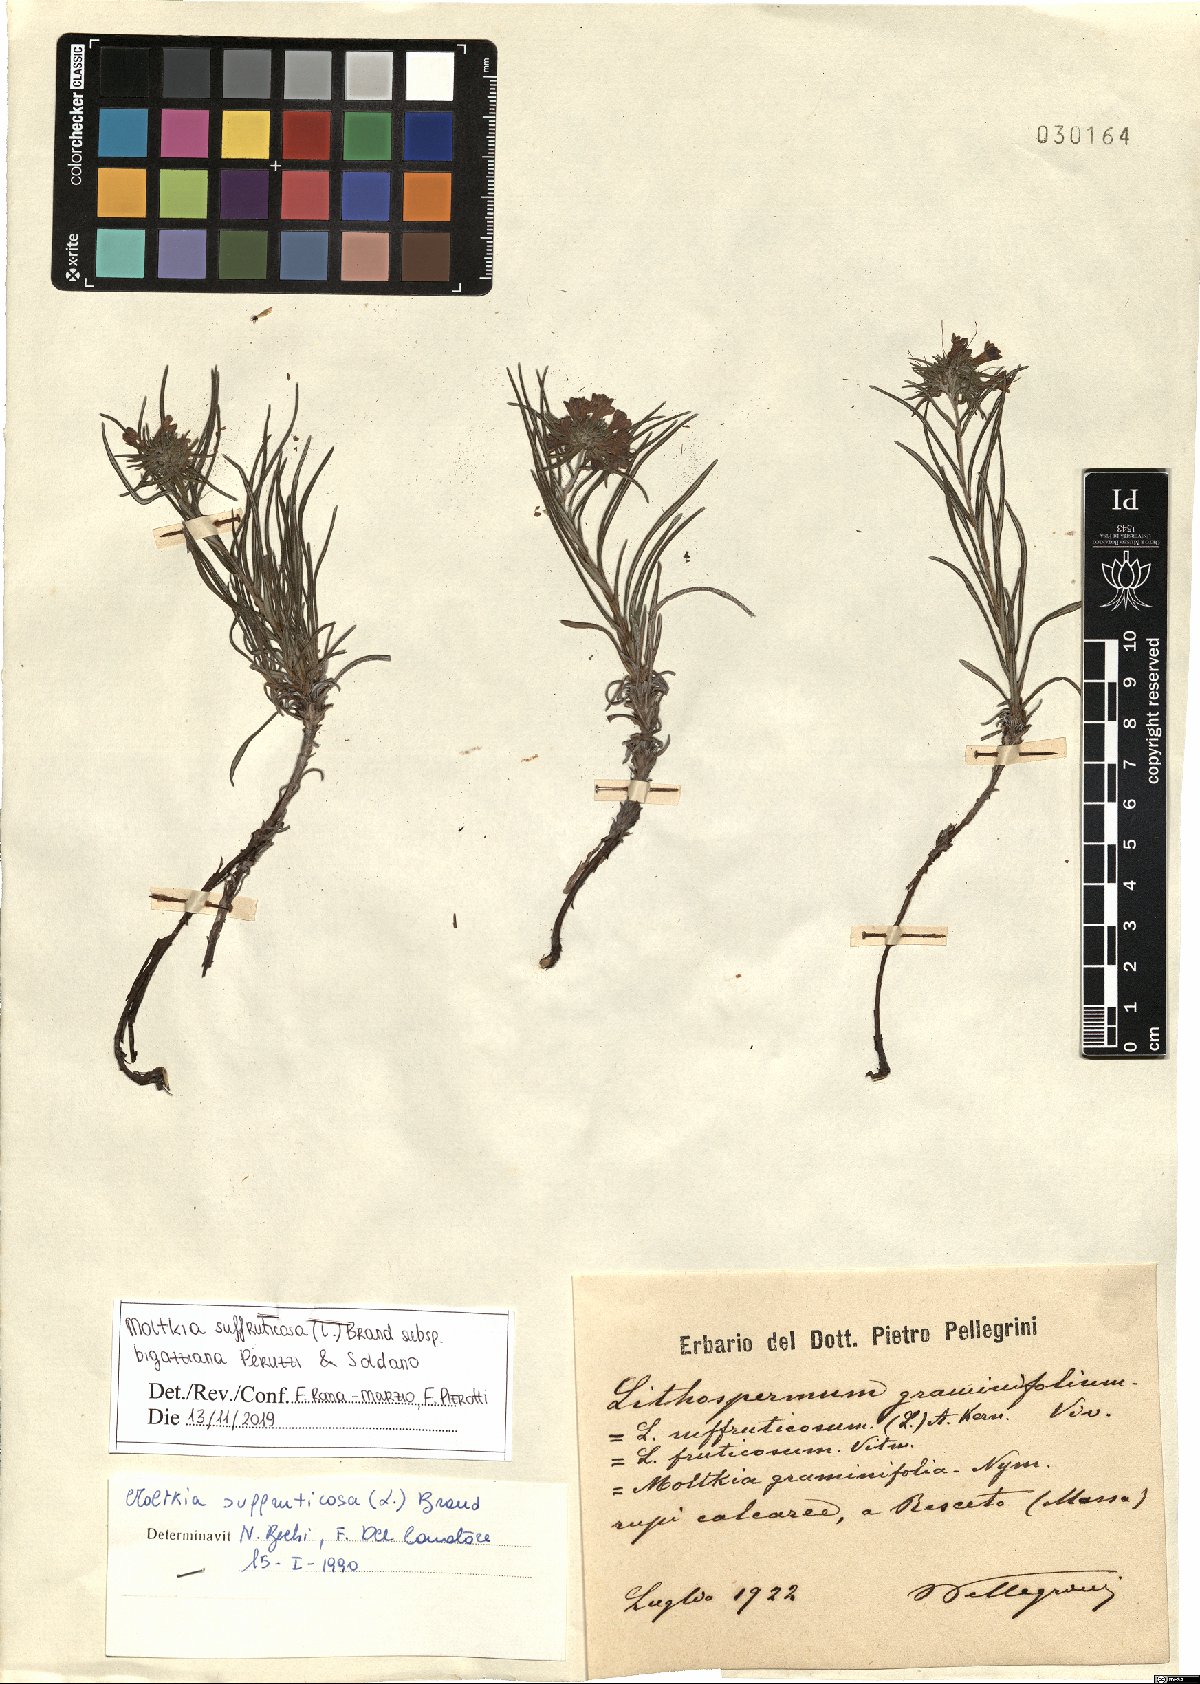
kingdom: Plantae
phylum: Tracheophyta
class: Magnoliopsida
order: Boraginales
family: Boraginaceae
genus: Moltkia
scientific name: Moltkia suffruticosa
